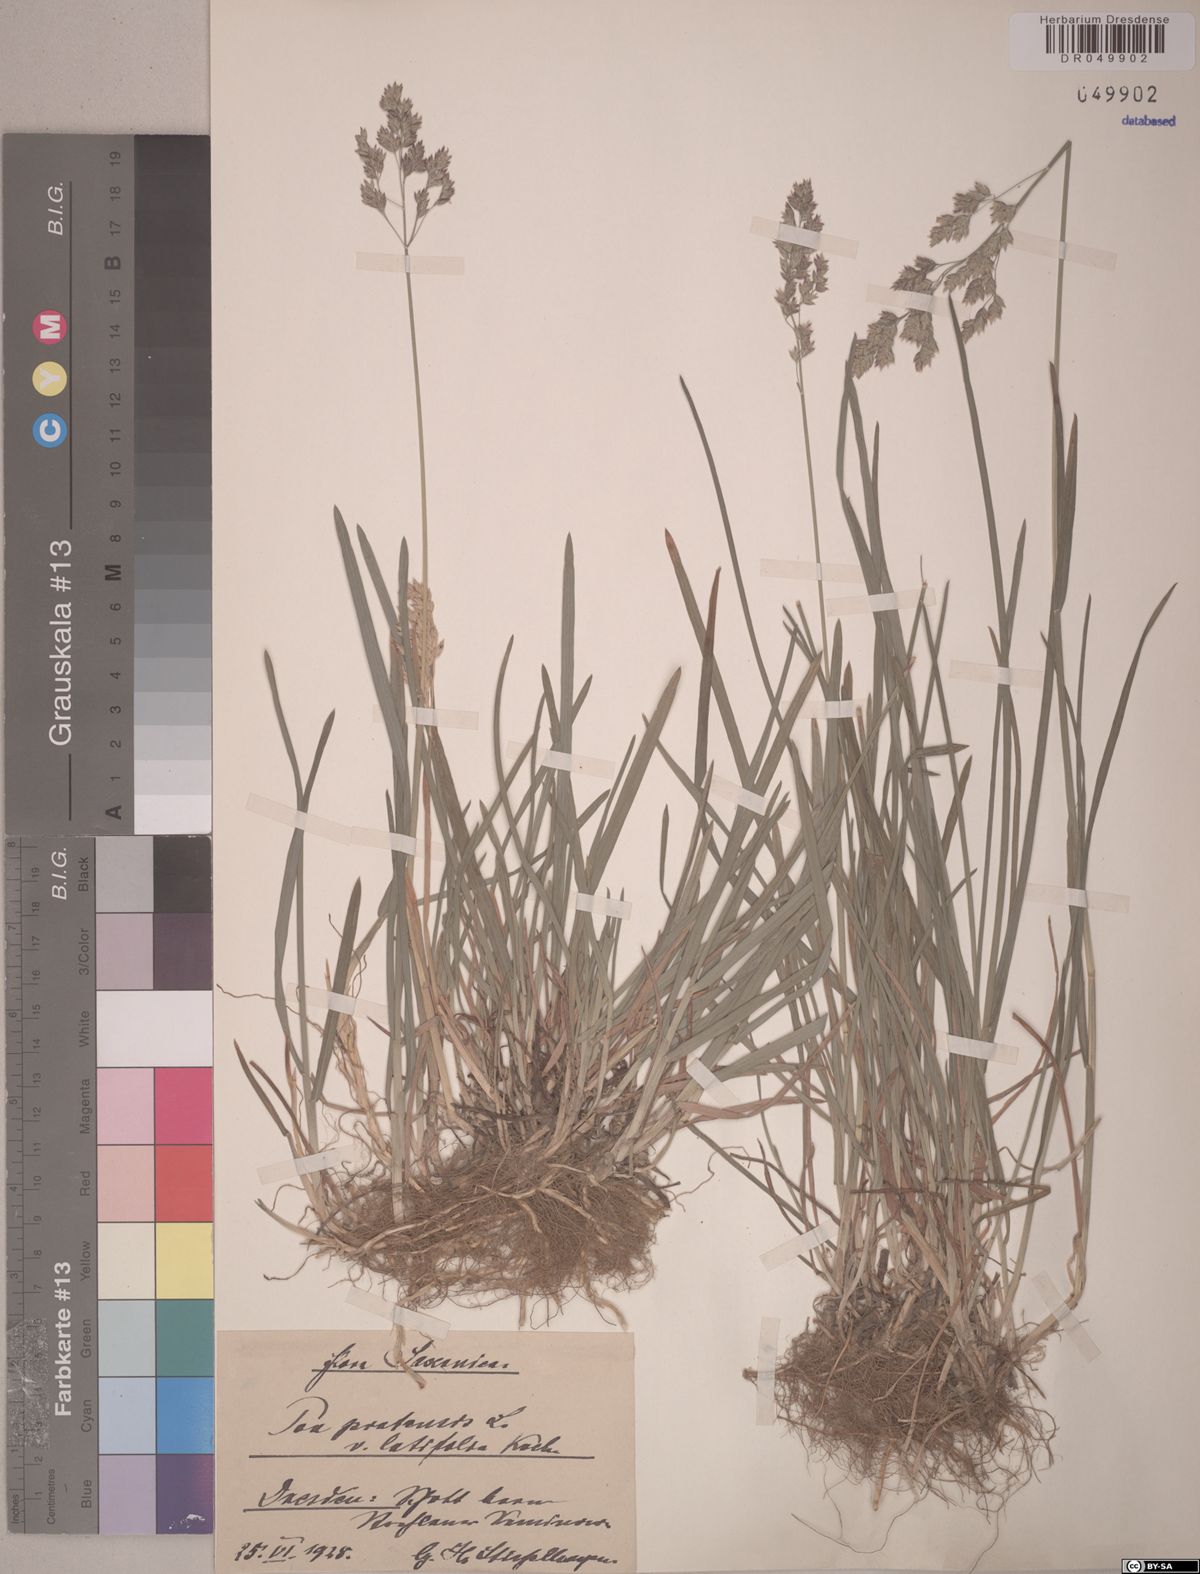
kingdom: Plantae
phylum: Tracheophyta
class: Liliopsida
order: Poales
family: Poaceae
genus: Poa
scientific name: Poa pratensis
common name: Kentucky bluegrass
